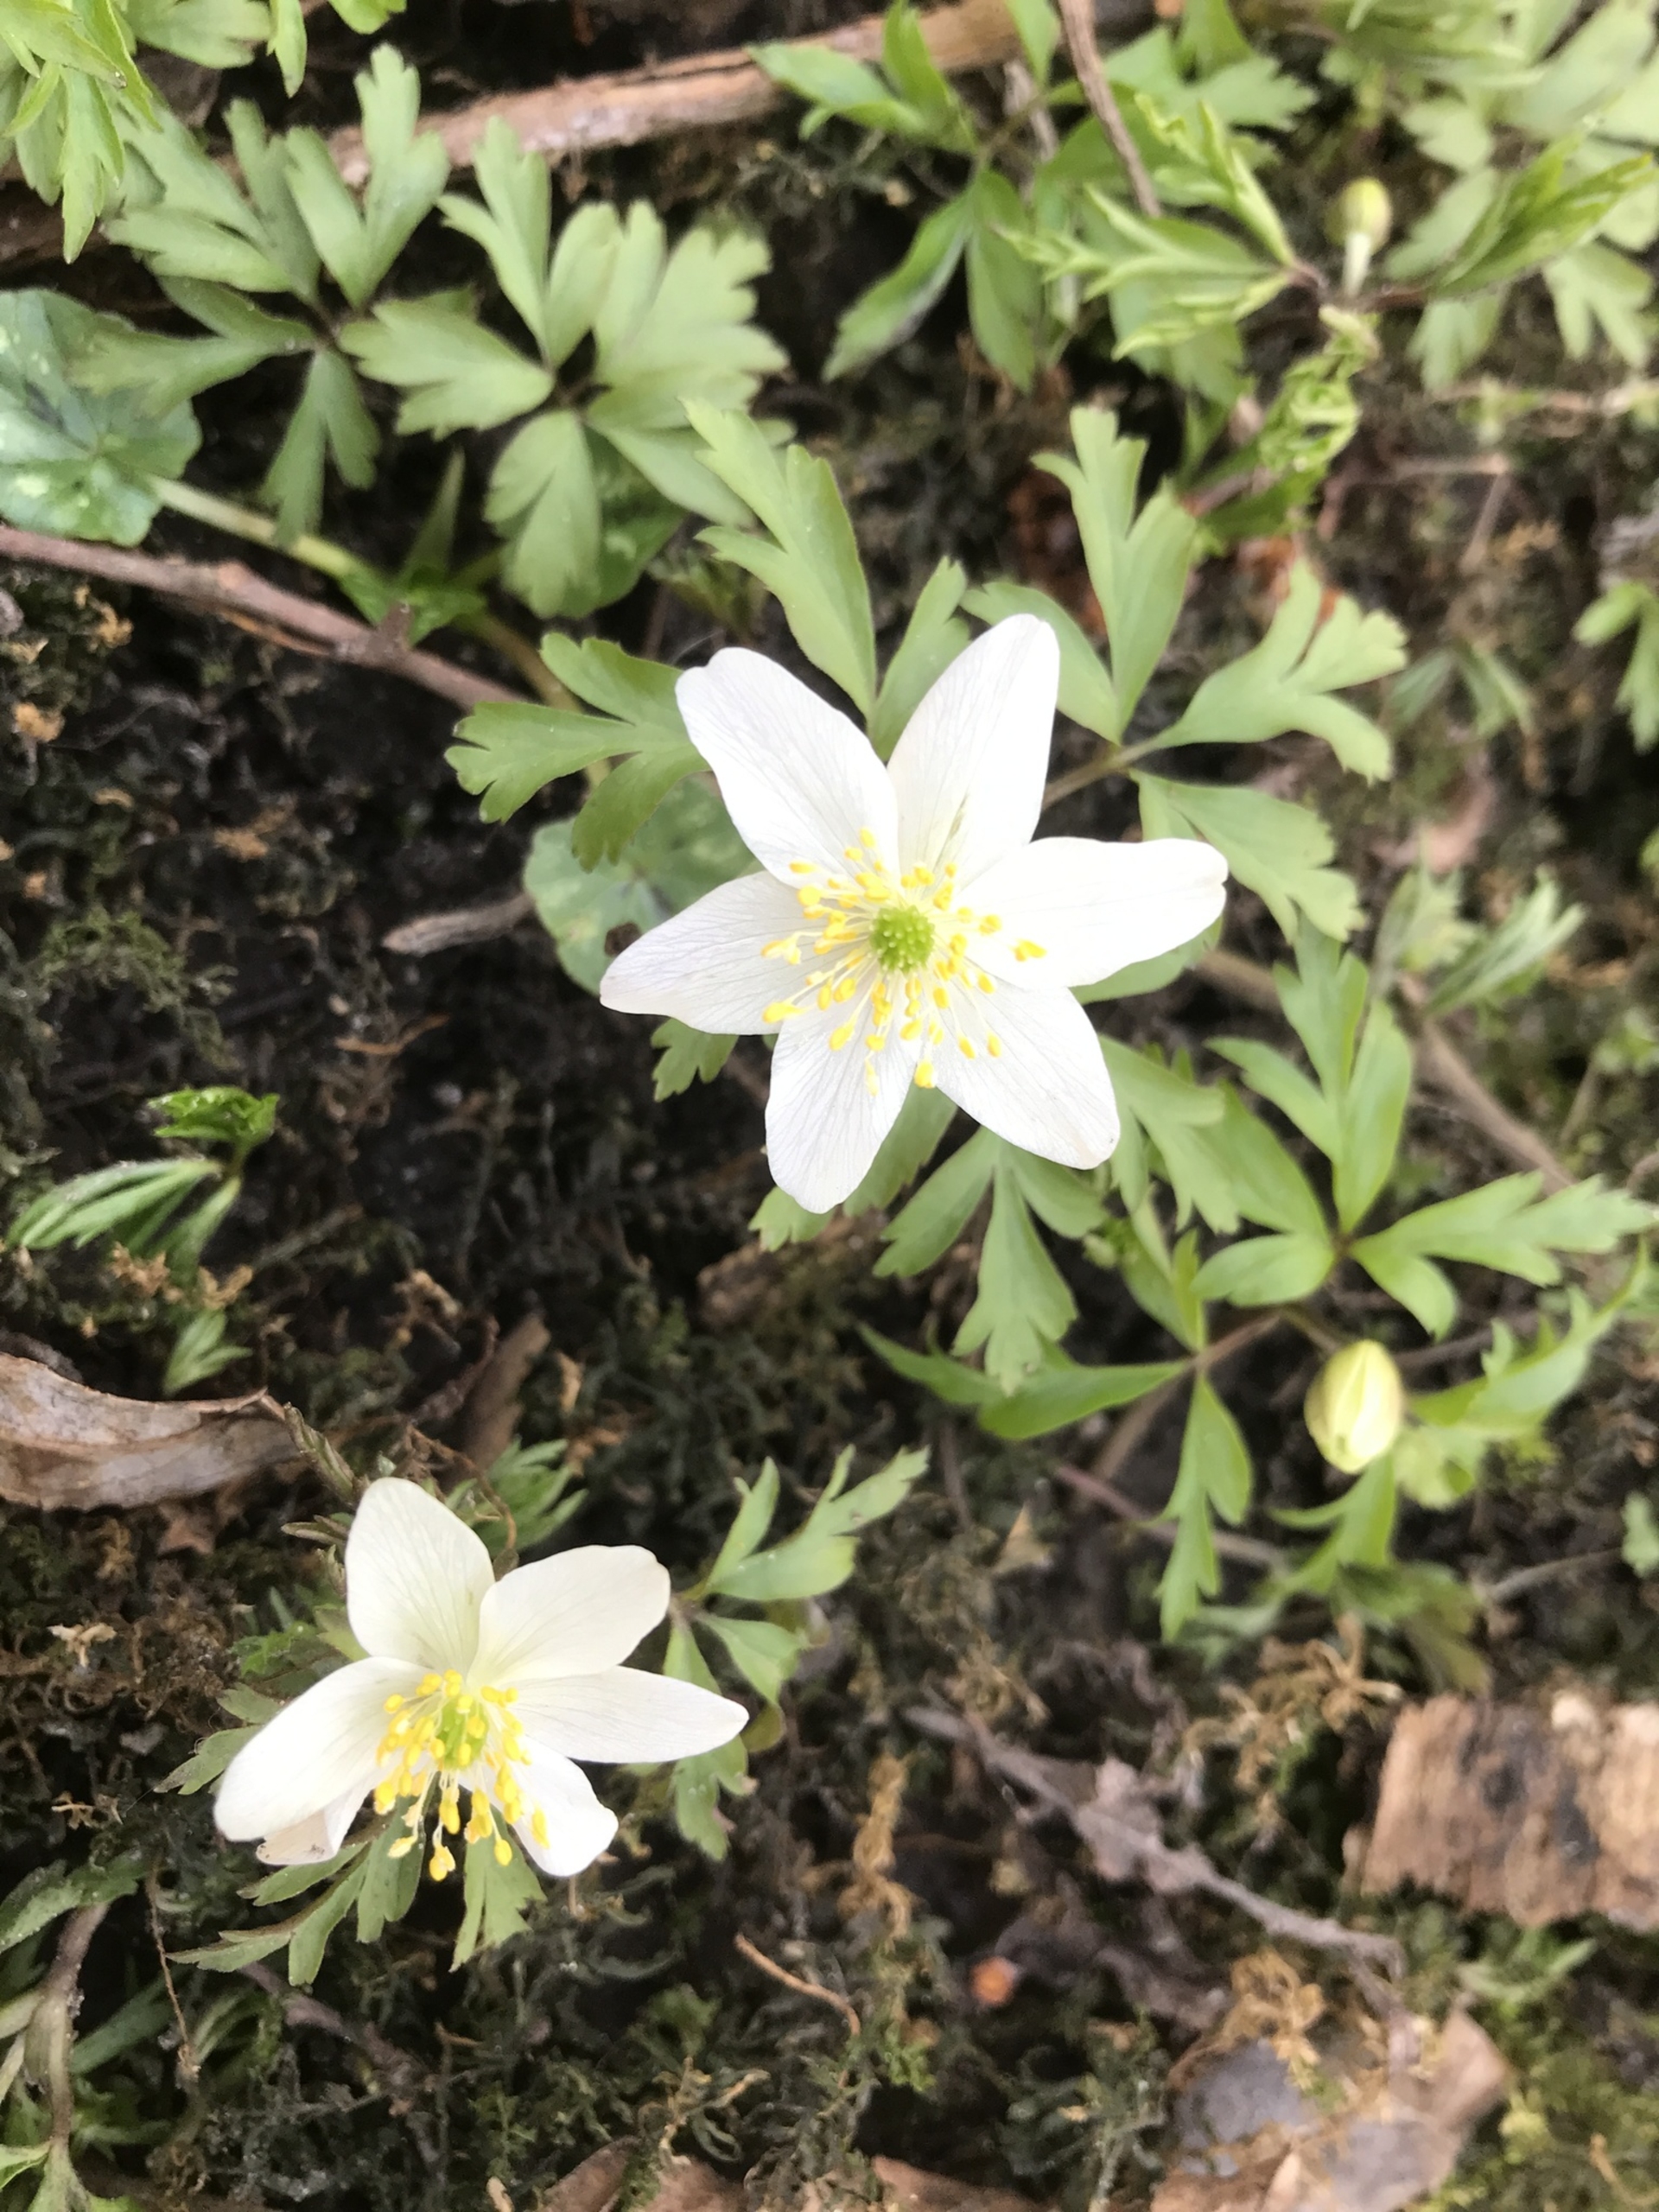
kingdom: Plantae
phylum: Tracheophyta
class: Magnoliopsida
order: Ranunculales
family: Ranunculaceae
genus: Anemone
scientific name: Anemone nemorosa
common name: Hvid anemone
